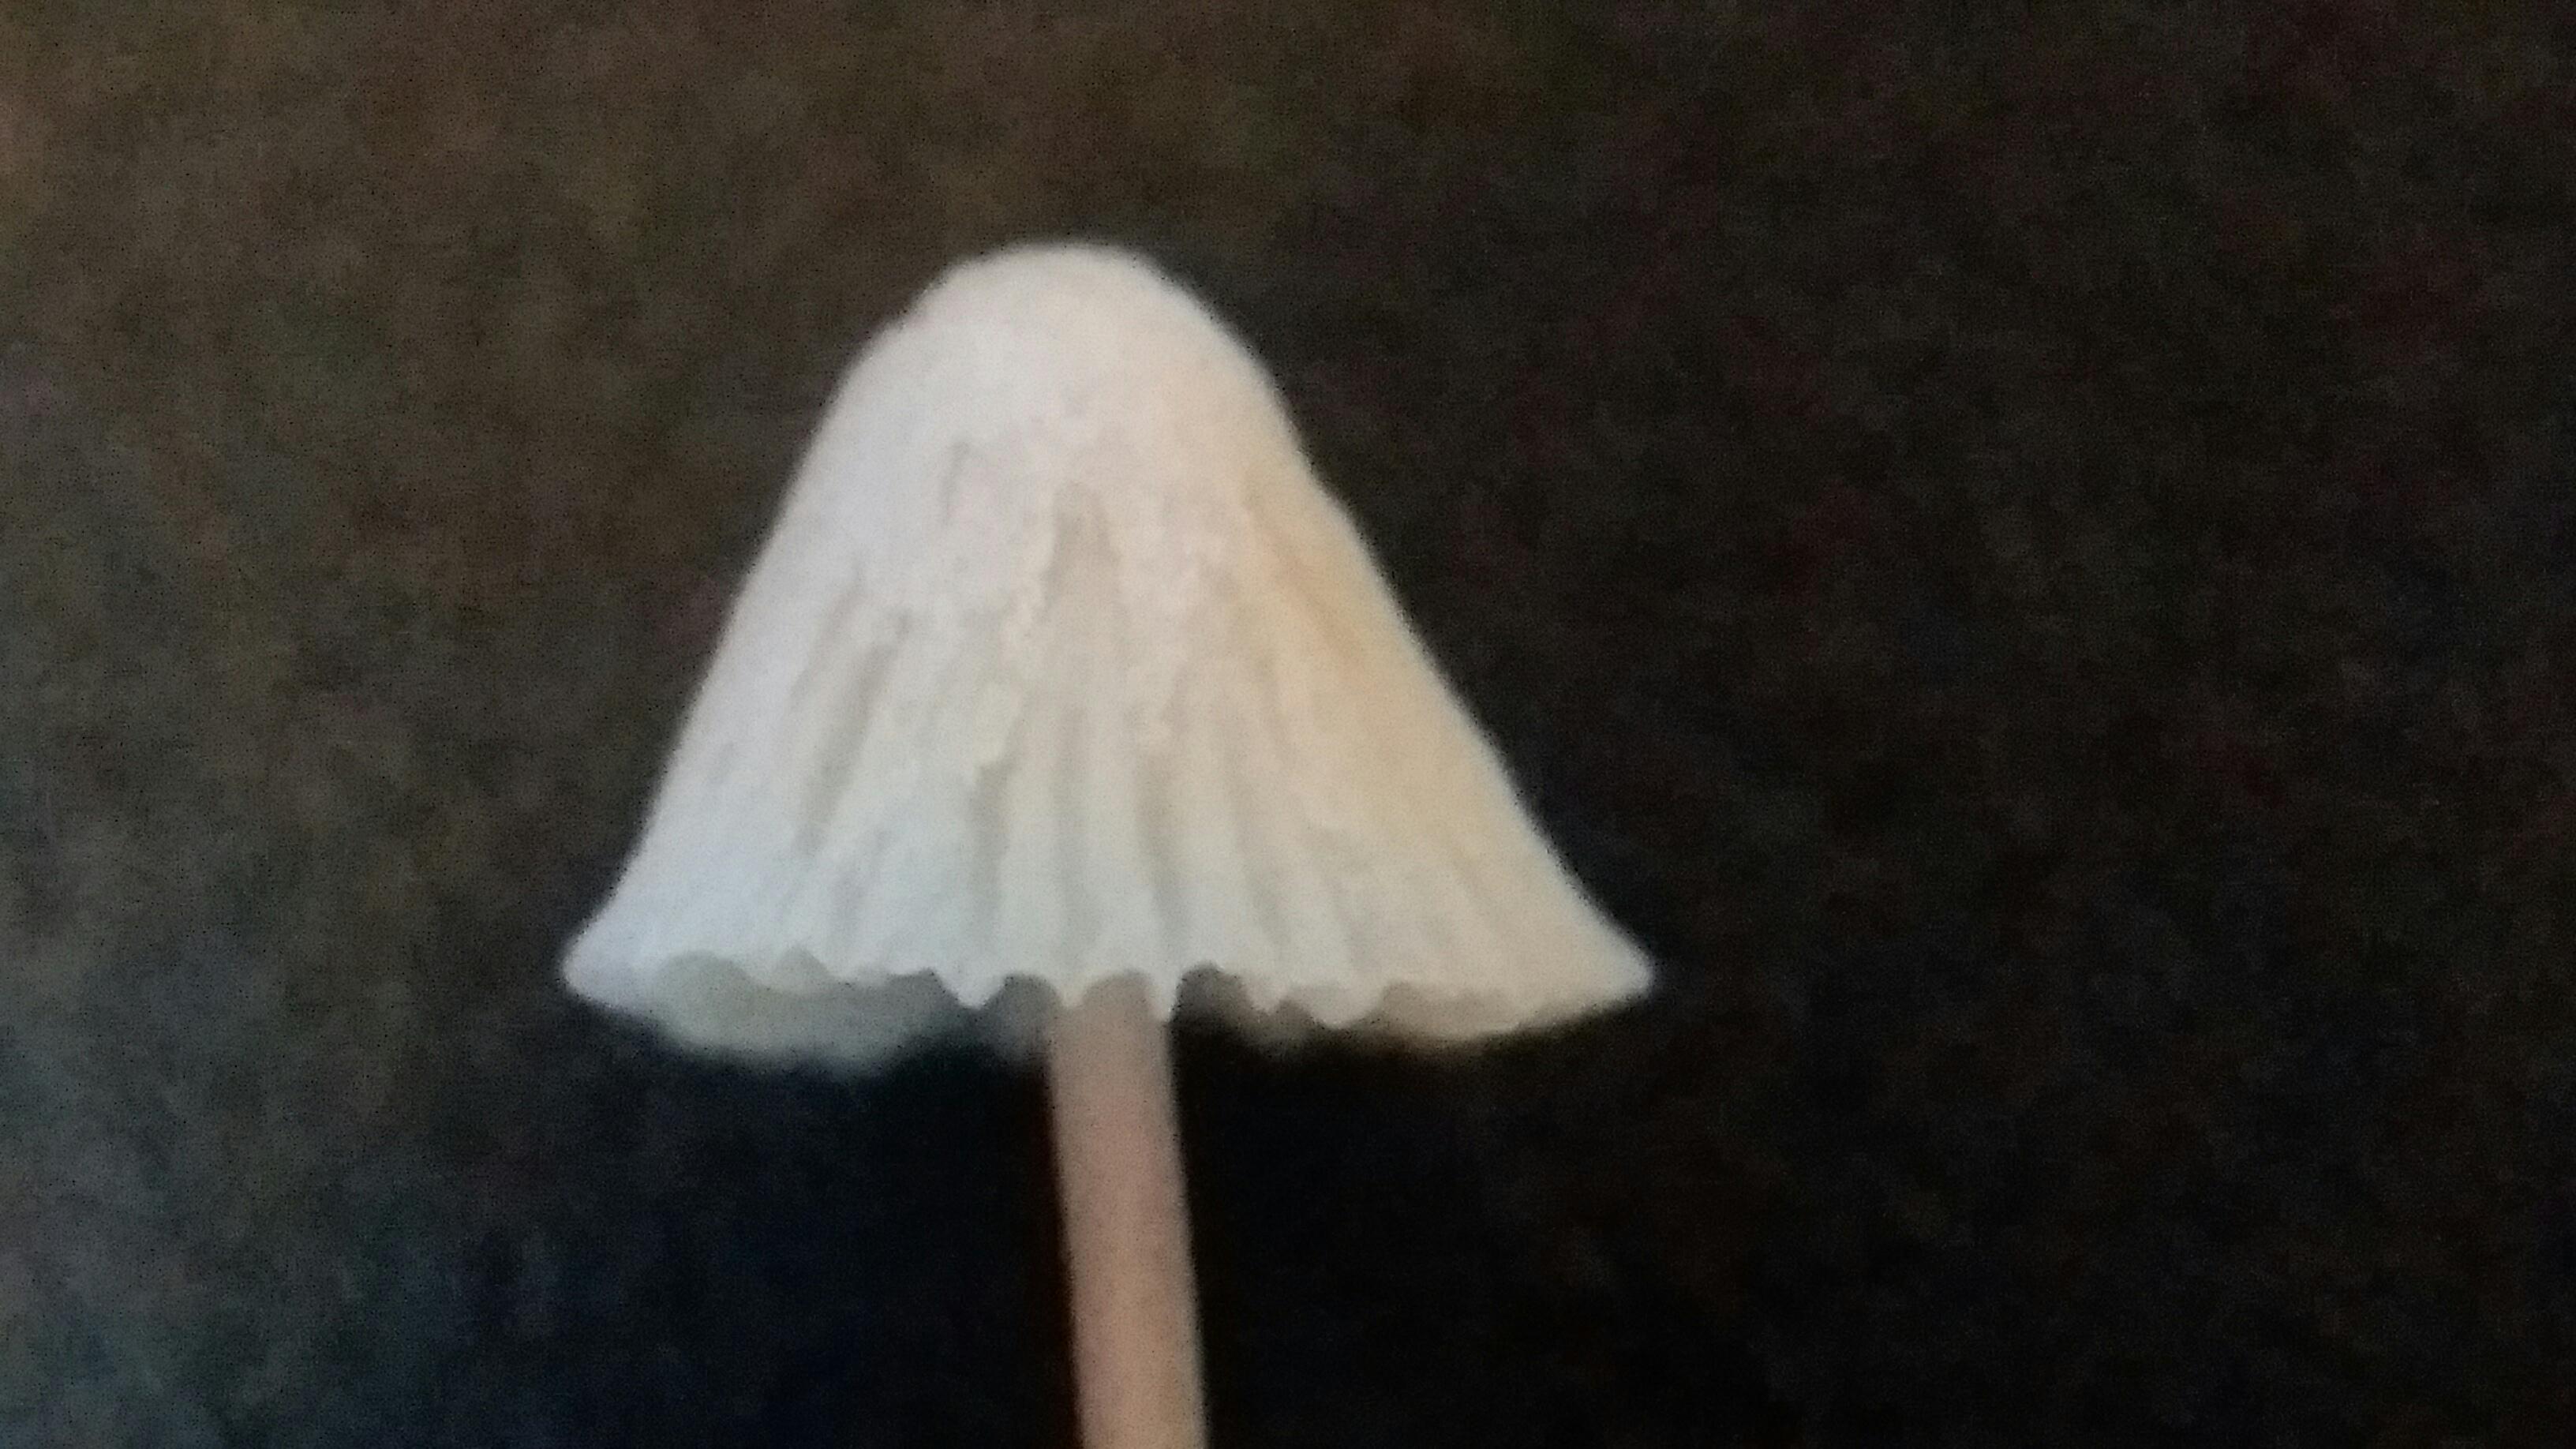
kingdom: Fungi
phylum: Basidiomycota
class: Agaricomycetes
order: Agaricales
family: Mycenaceae
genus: Mycena
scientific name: Mycena flavescens
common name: grågul huesvamp
